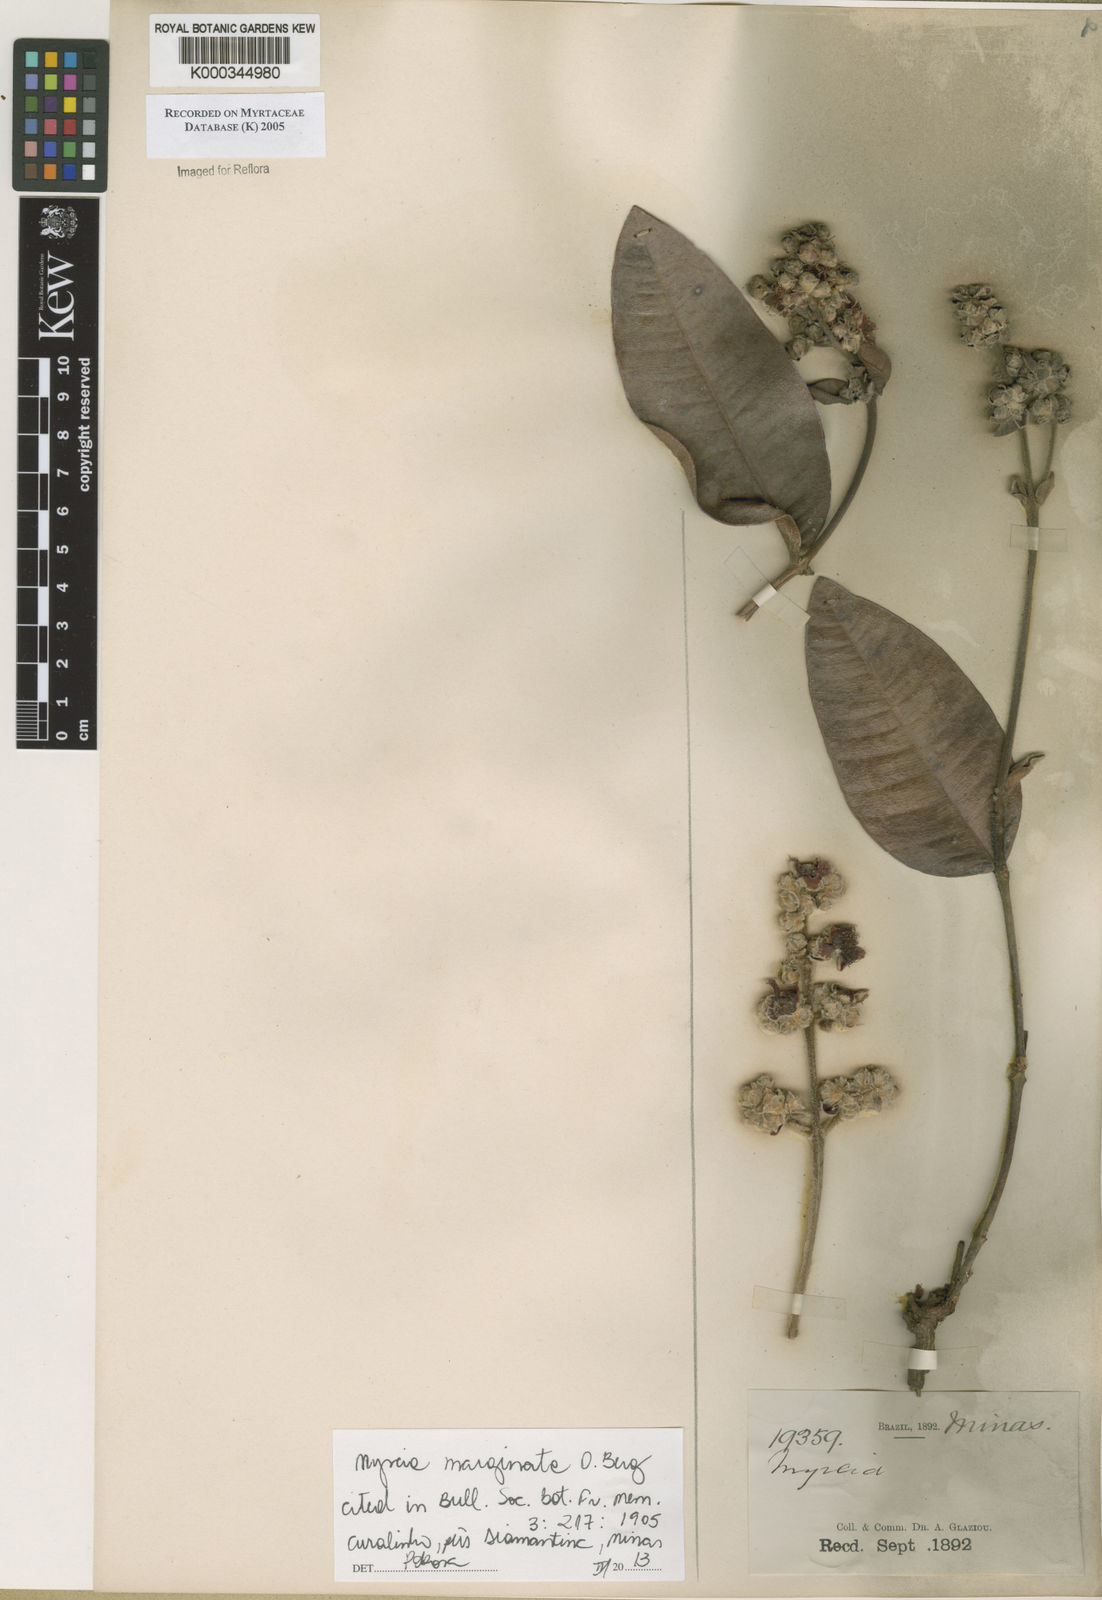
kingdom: Plantae
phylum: Tracheophyta
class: Magnoliopsida
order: Myrtales
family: Myrtaceae
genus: Myrcia
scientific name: Myrcia
